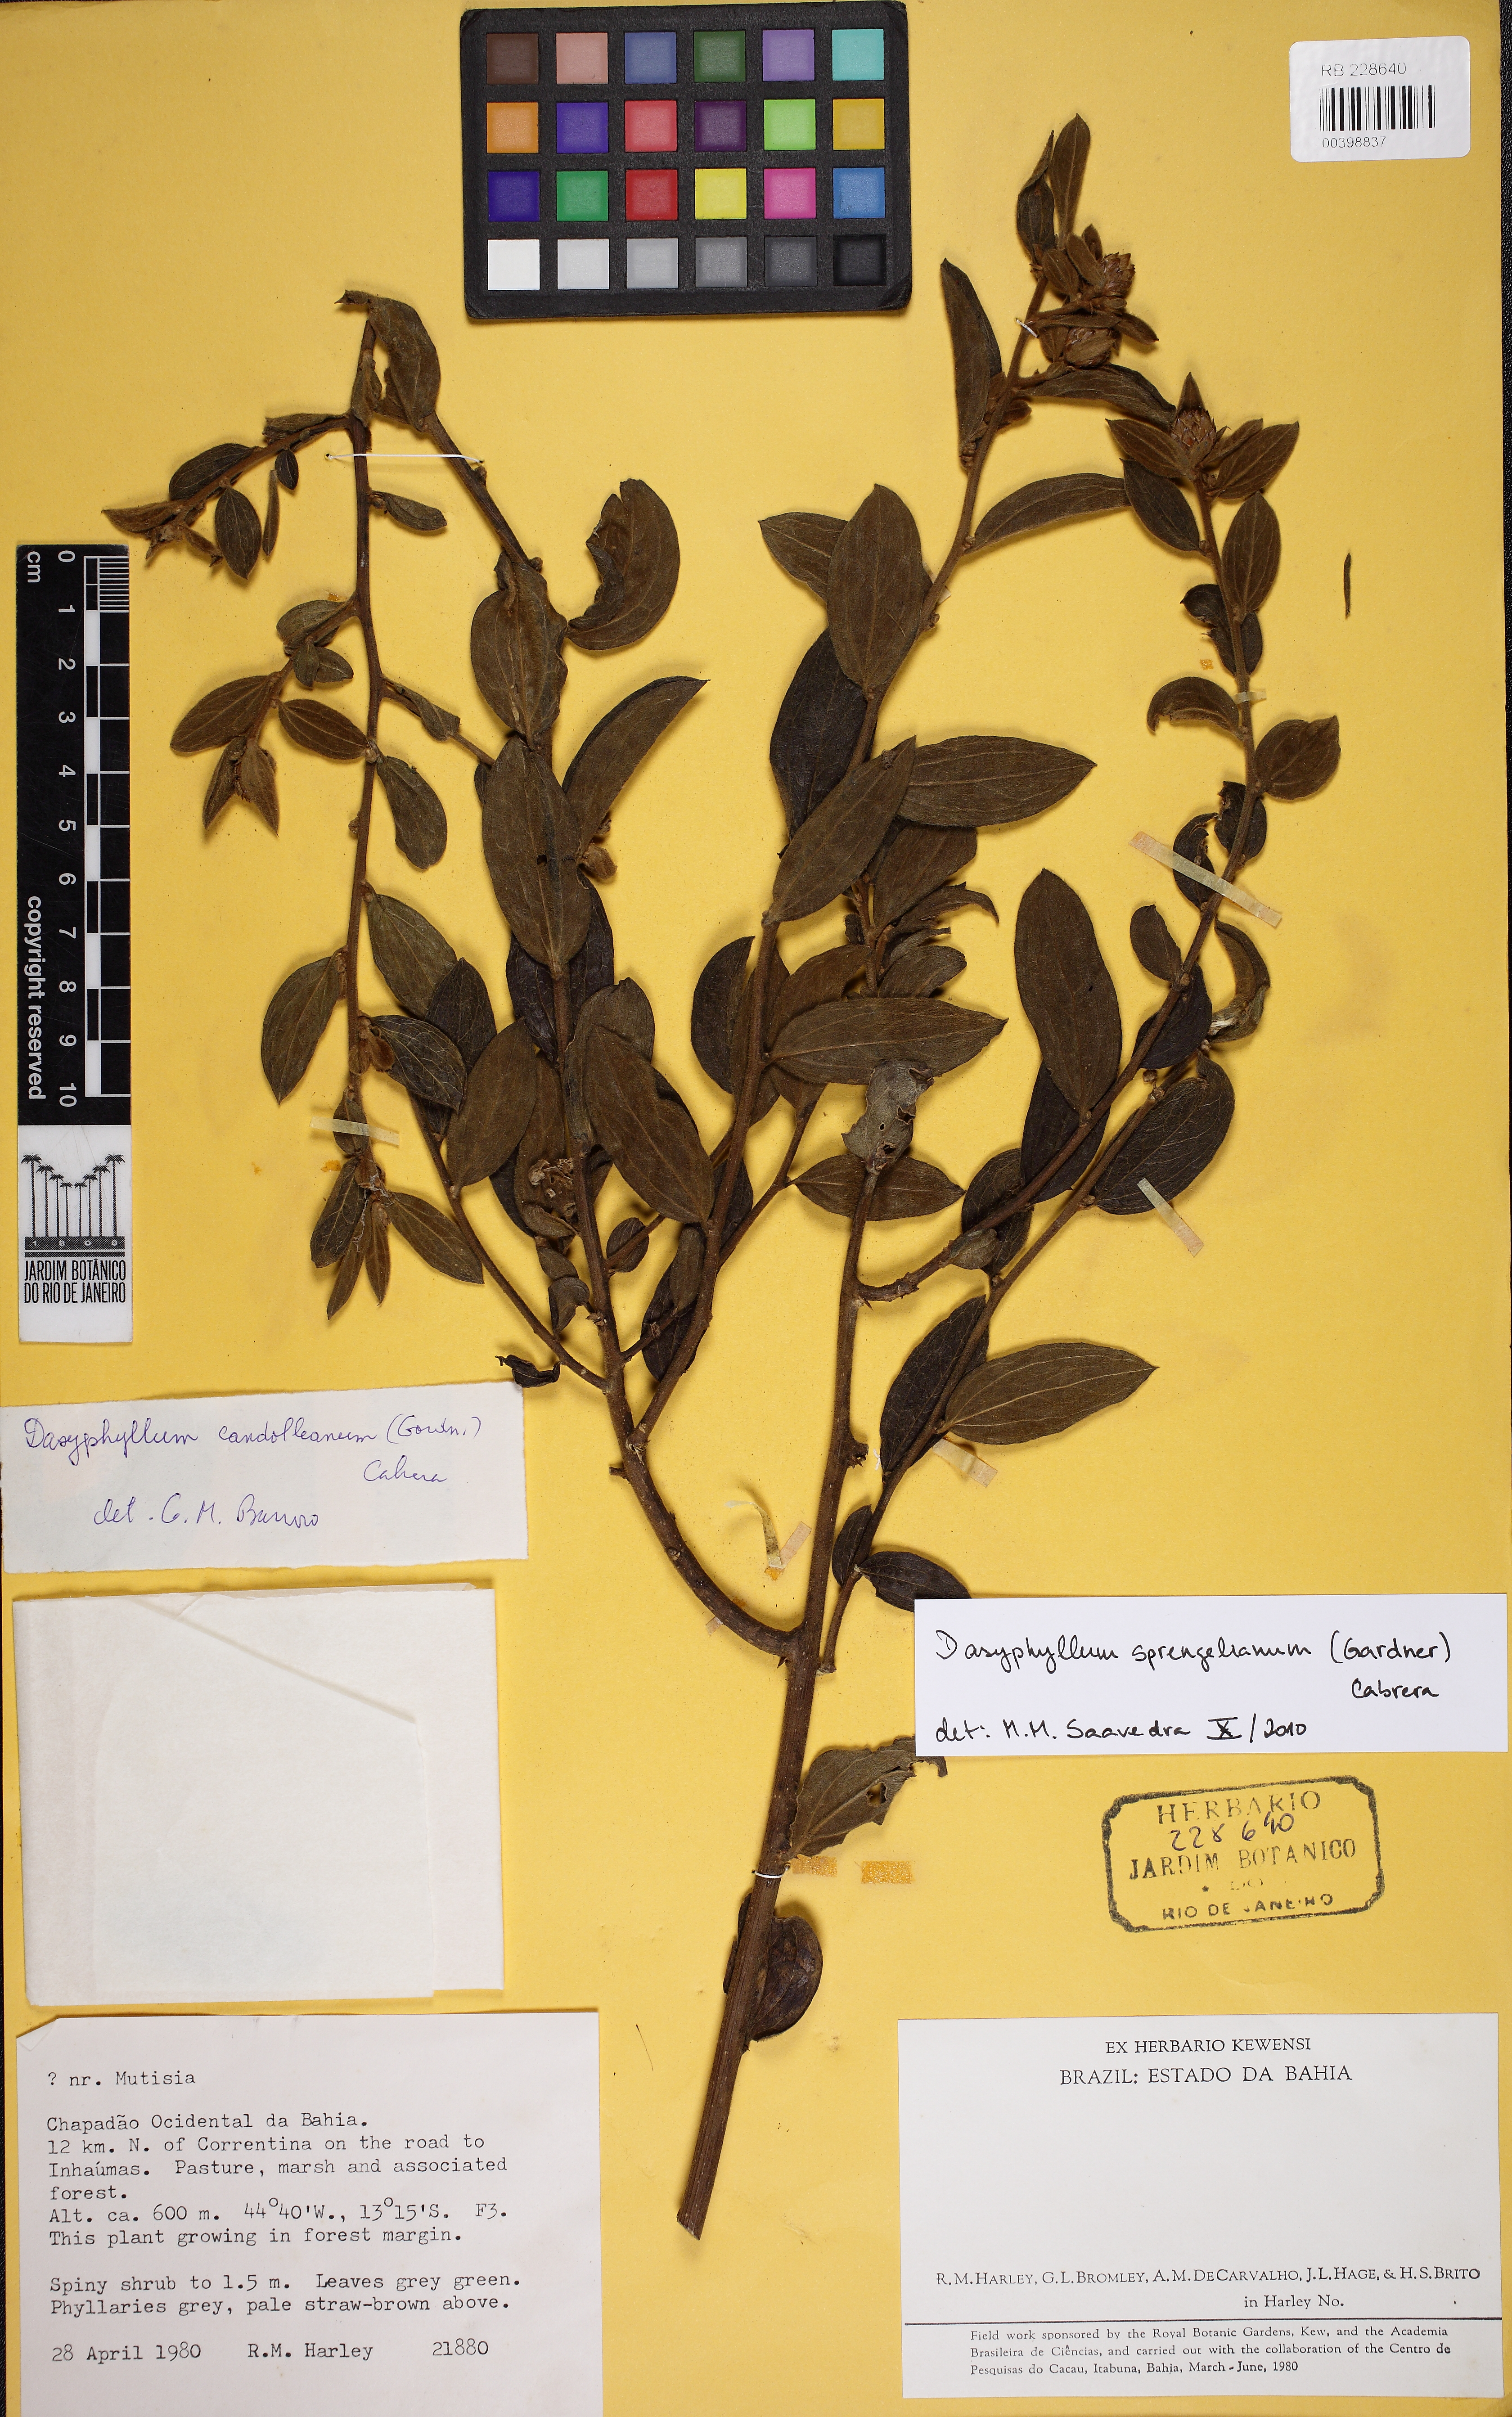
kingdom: Plantae
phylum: Tracheophyta
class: Magnoliopsida
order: Asterales
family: Asteraceae
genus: Dasyphyllum
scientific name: Dasyphyllum sprengelianum
